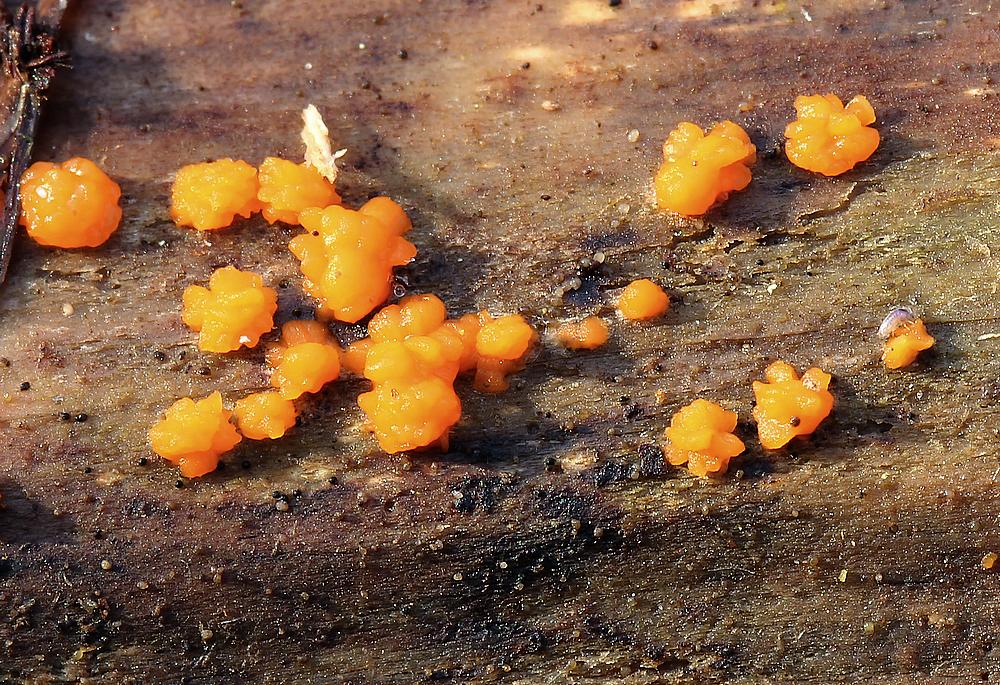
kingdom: Fungi
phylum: Basidiomycota
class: Dacrymycetes
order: Dacrymycetales
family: Dacrymycetaceae
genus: Dacrymyces
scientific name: Dacrymyces stillatus
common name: almindelig tåresvamp
